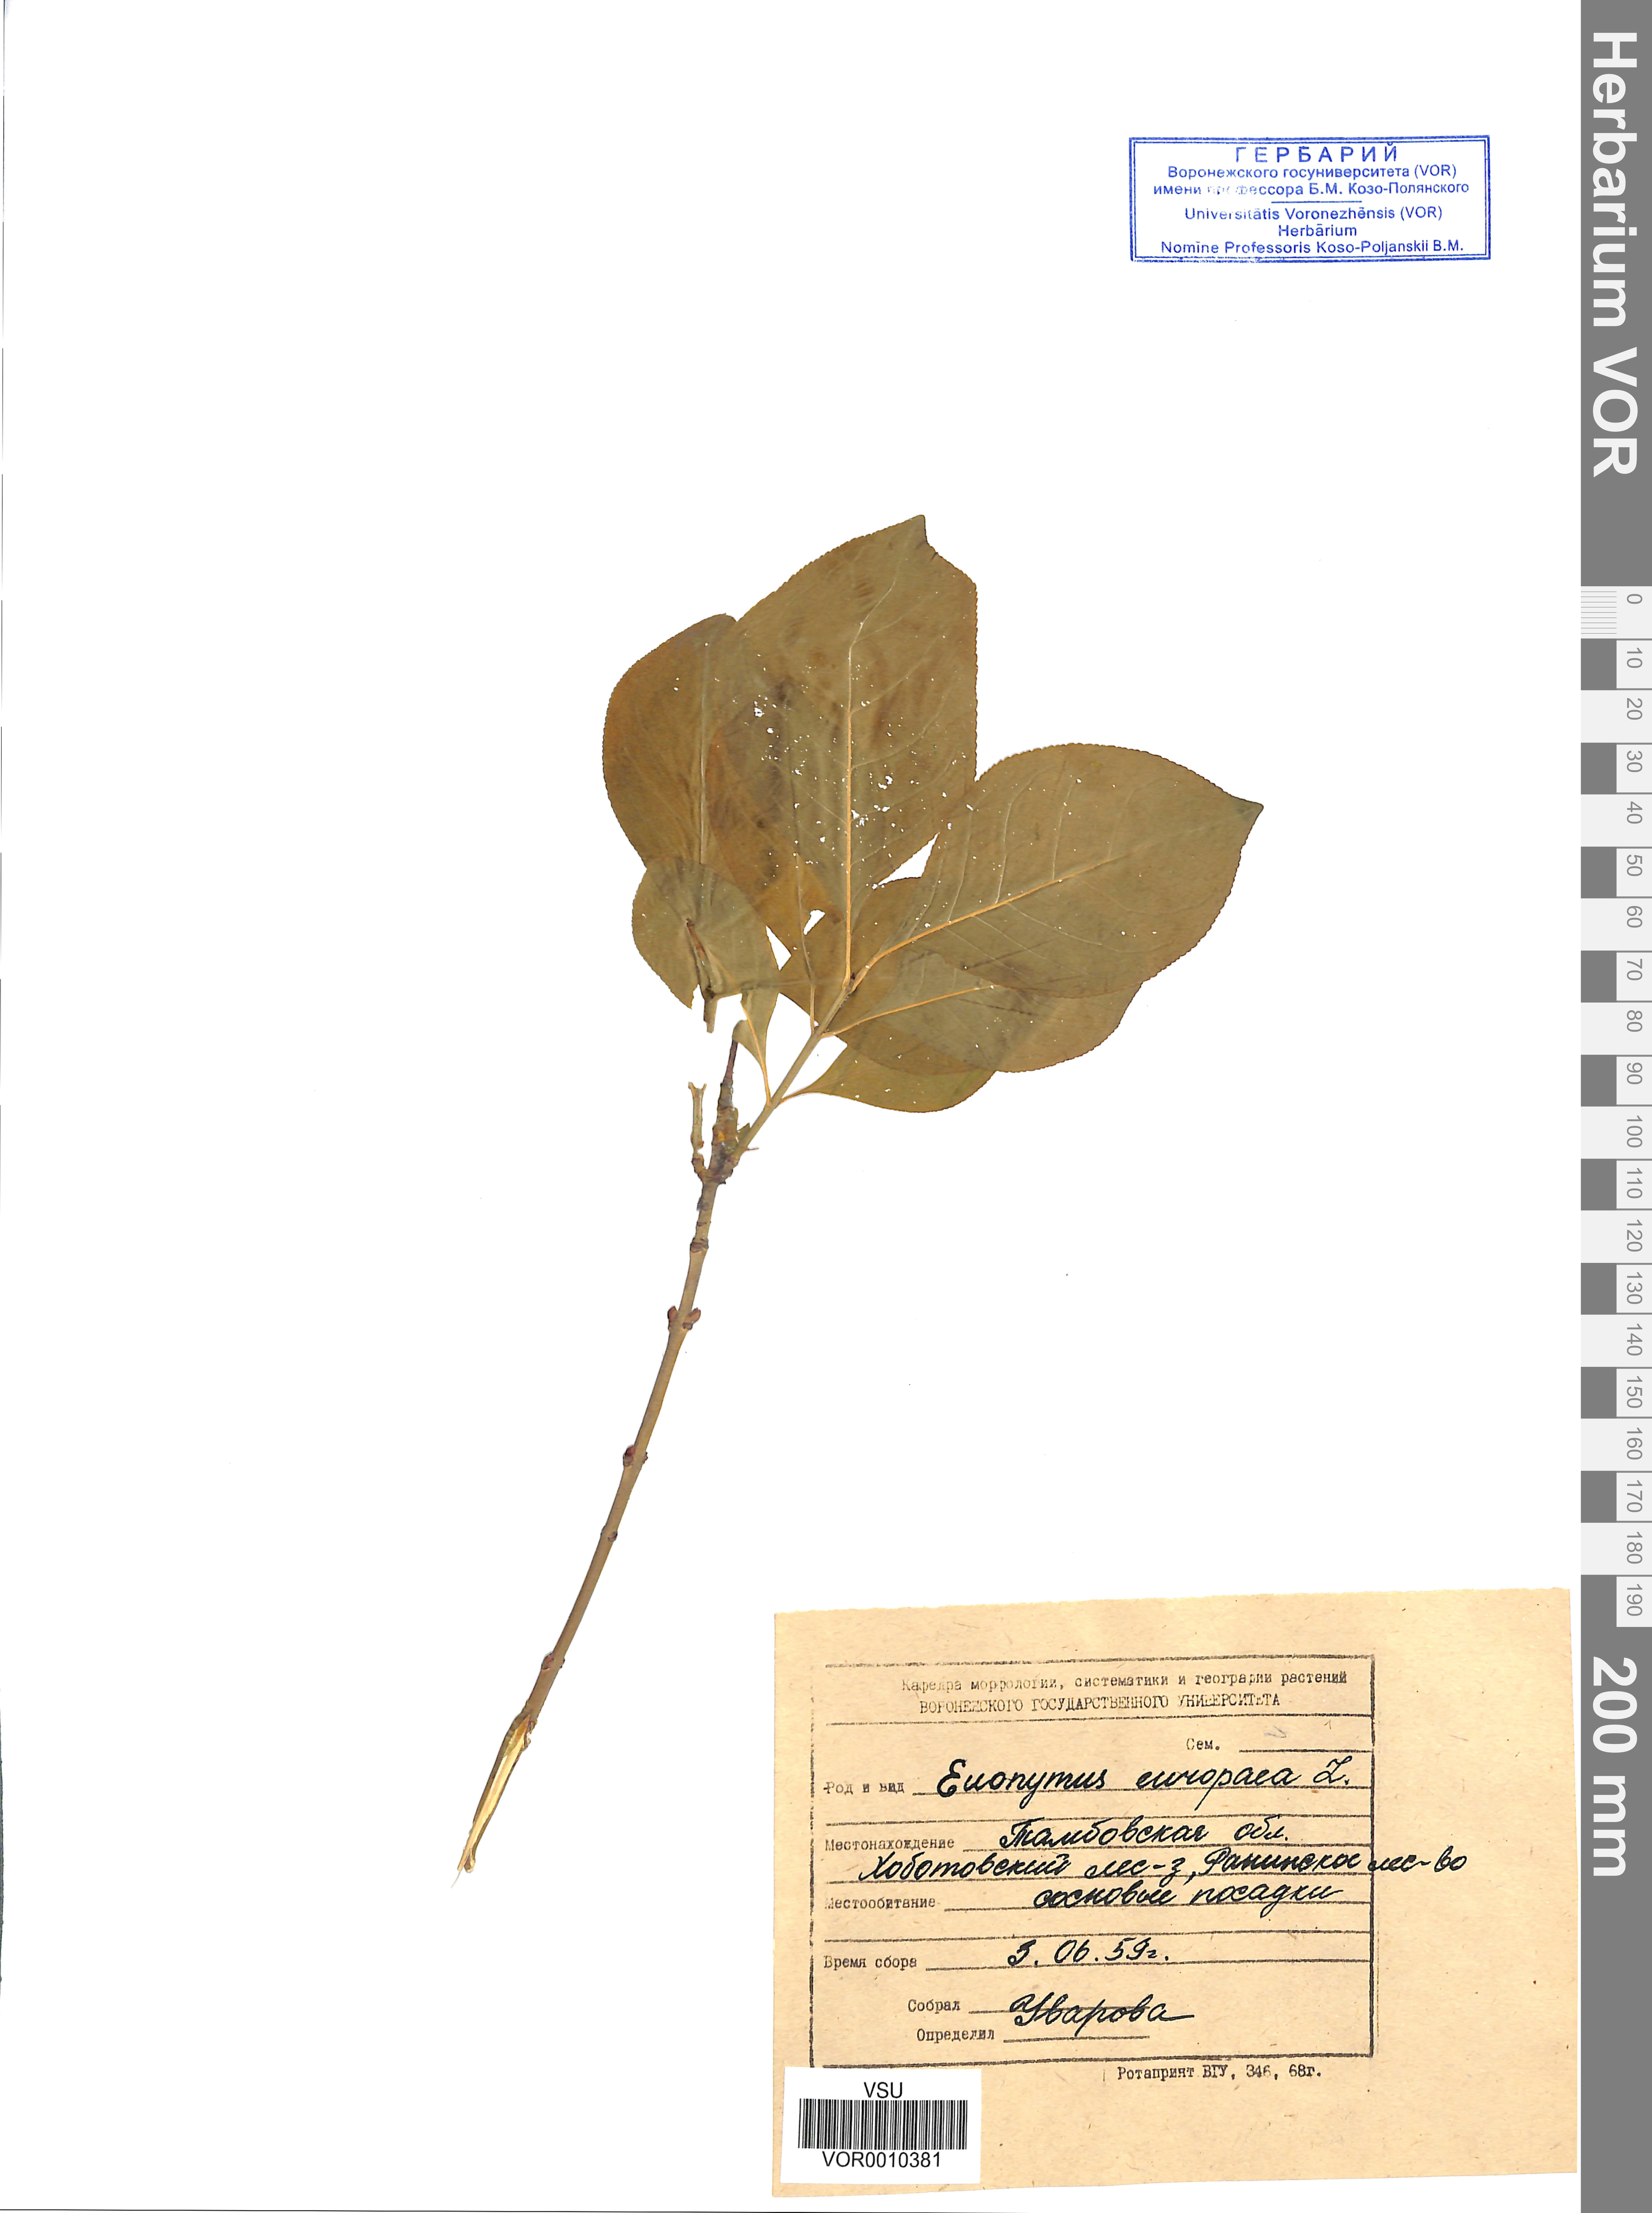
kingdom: Plantae
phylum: Tracheophyta
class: Magnoliopsida
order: Celastrales
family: Celastraceae
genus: Euonymus
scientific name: Euonymus europaeus
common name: Spindle
